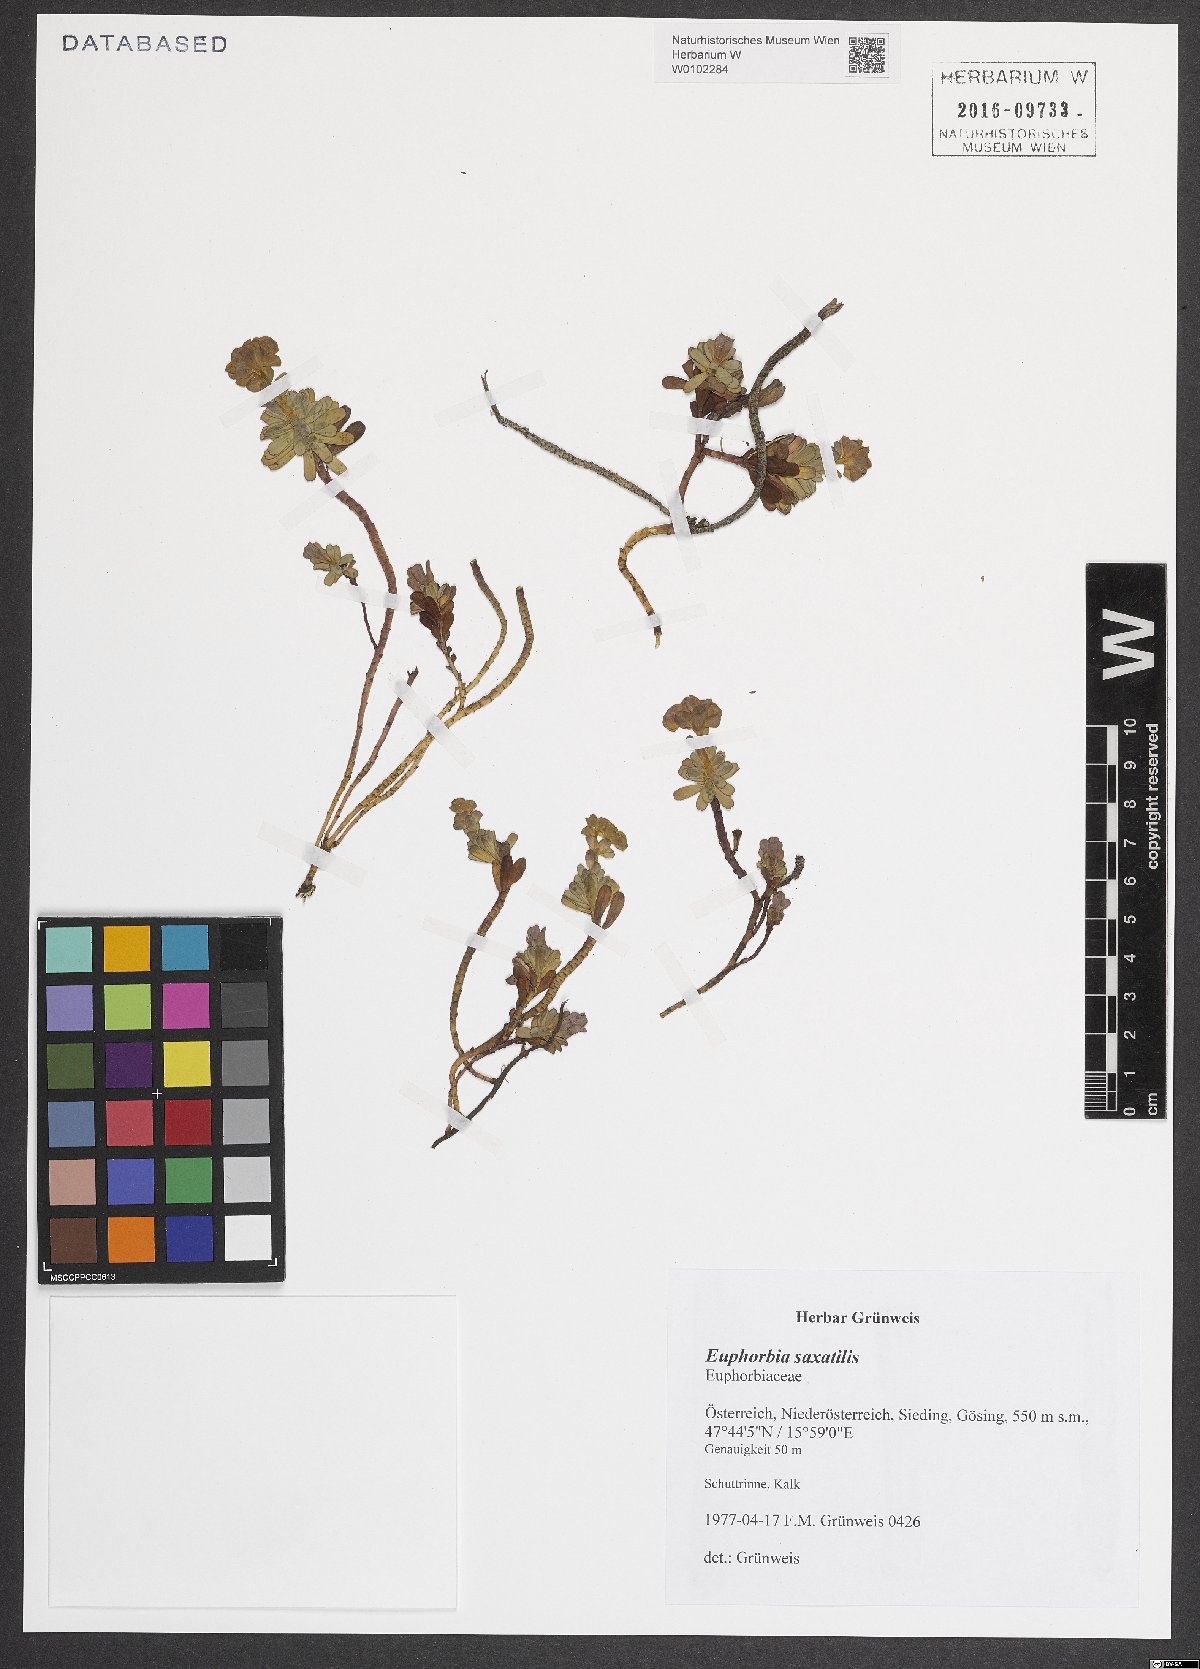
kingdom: Plantae
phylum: Tracheophyta
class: Magnoliopsida
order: Malpighiales
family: Euphorbiaceae
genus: Euphorbia
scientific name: Euphorbia saxatilis
